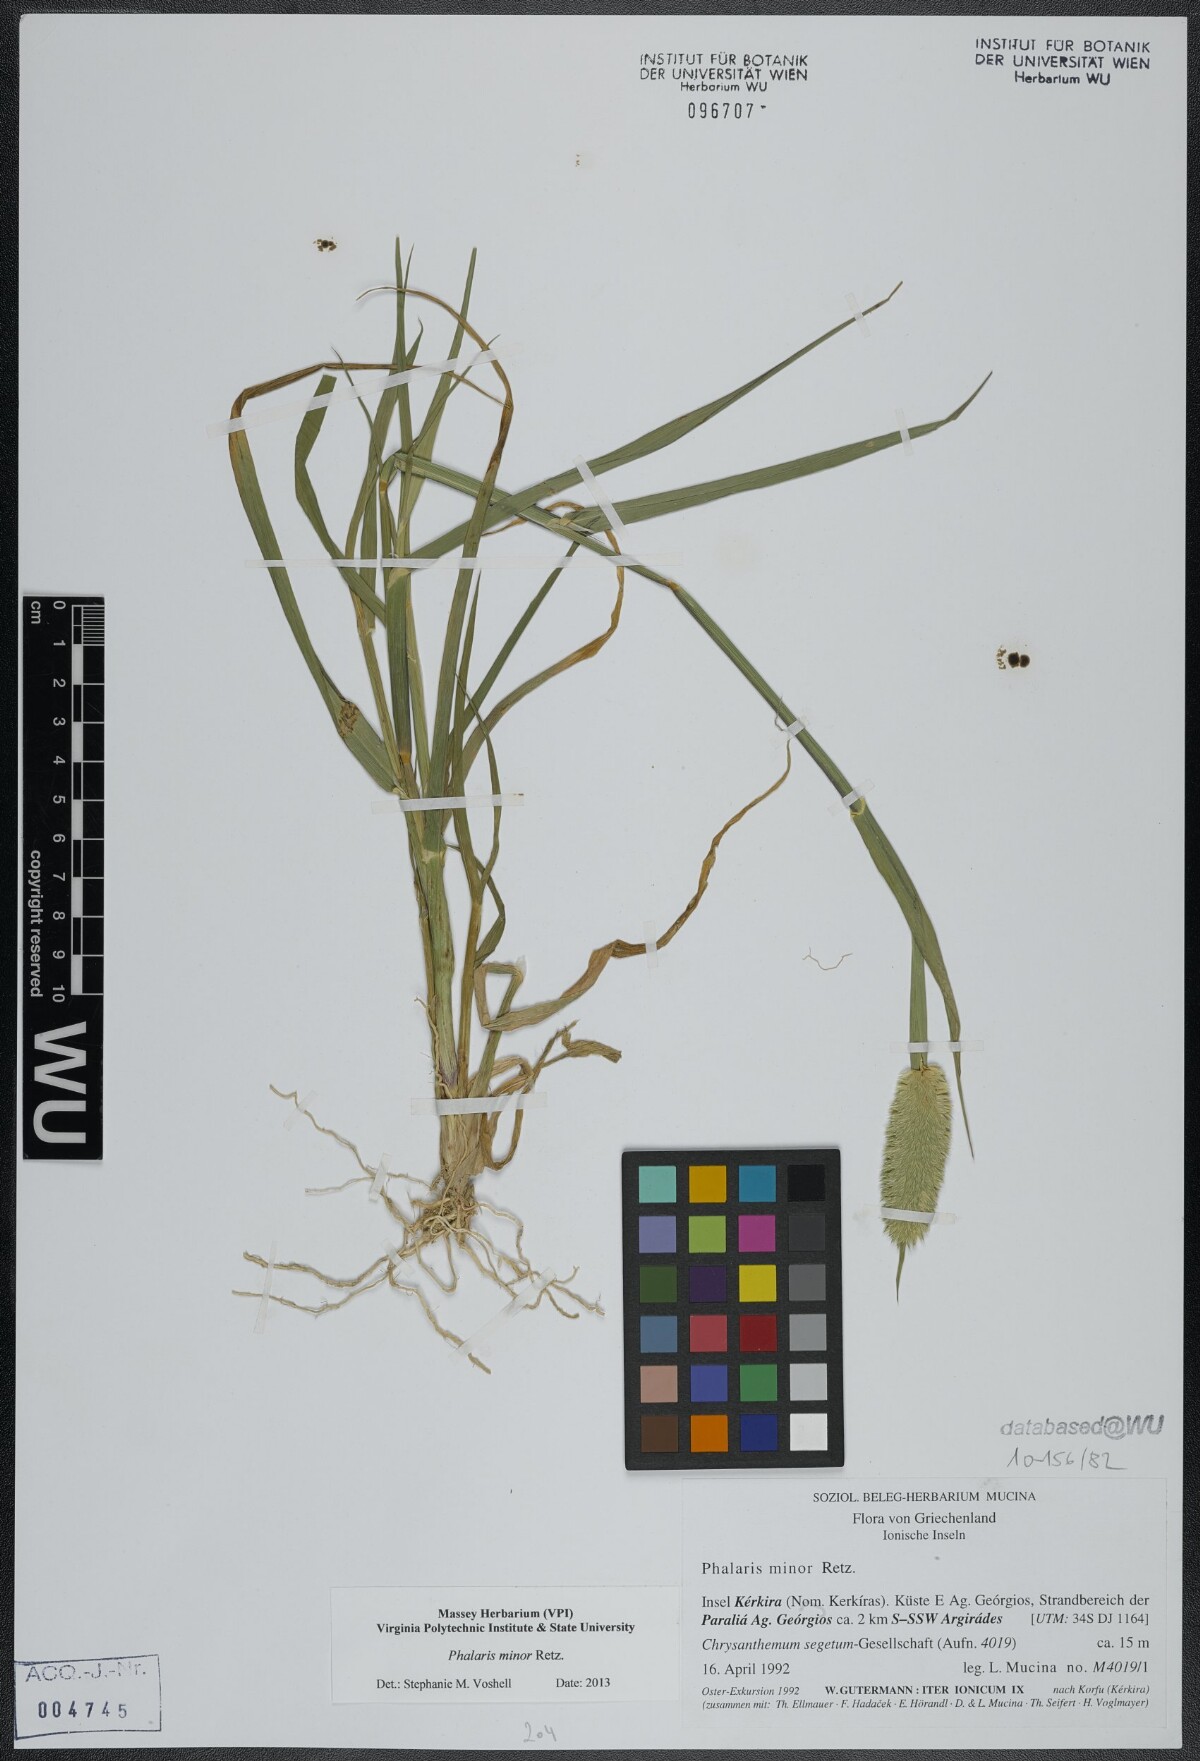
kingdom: Plantae
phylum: Tracheophyta
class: Liliopsida
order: Poales
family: Poaceae
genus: Phalaris
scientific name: Phalaris minor
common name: Littleseed canarygrass
